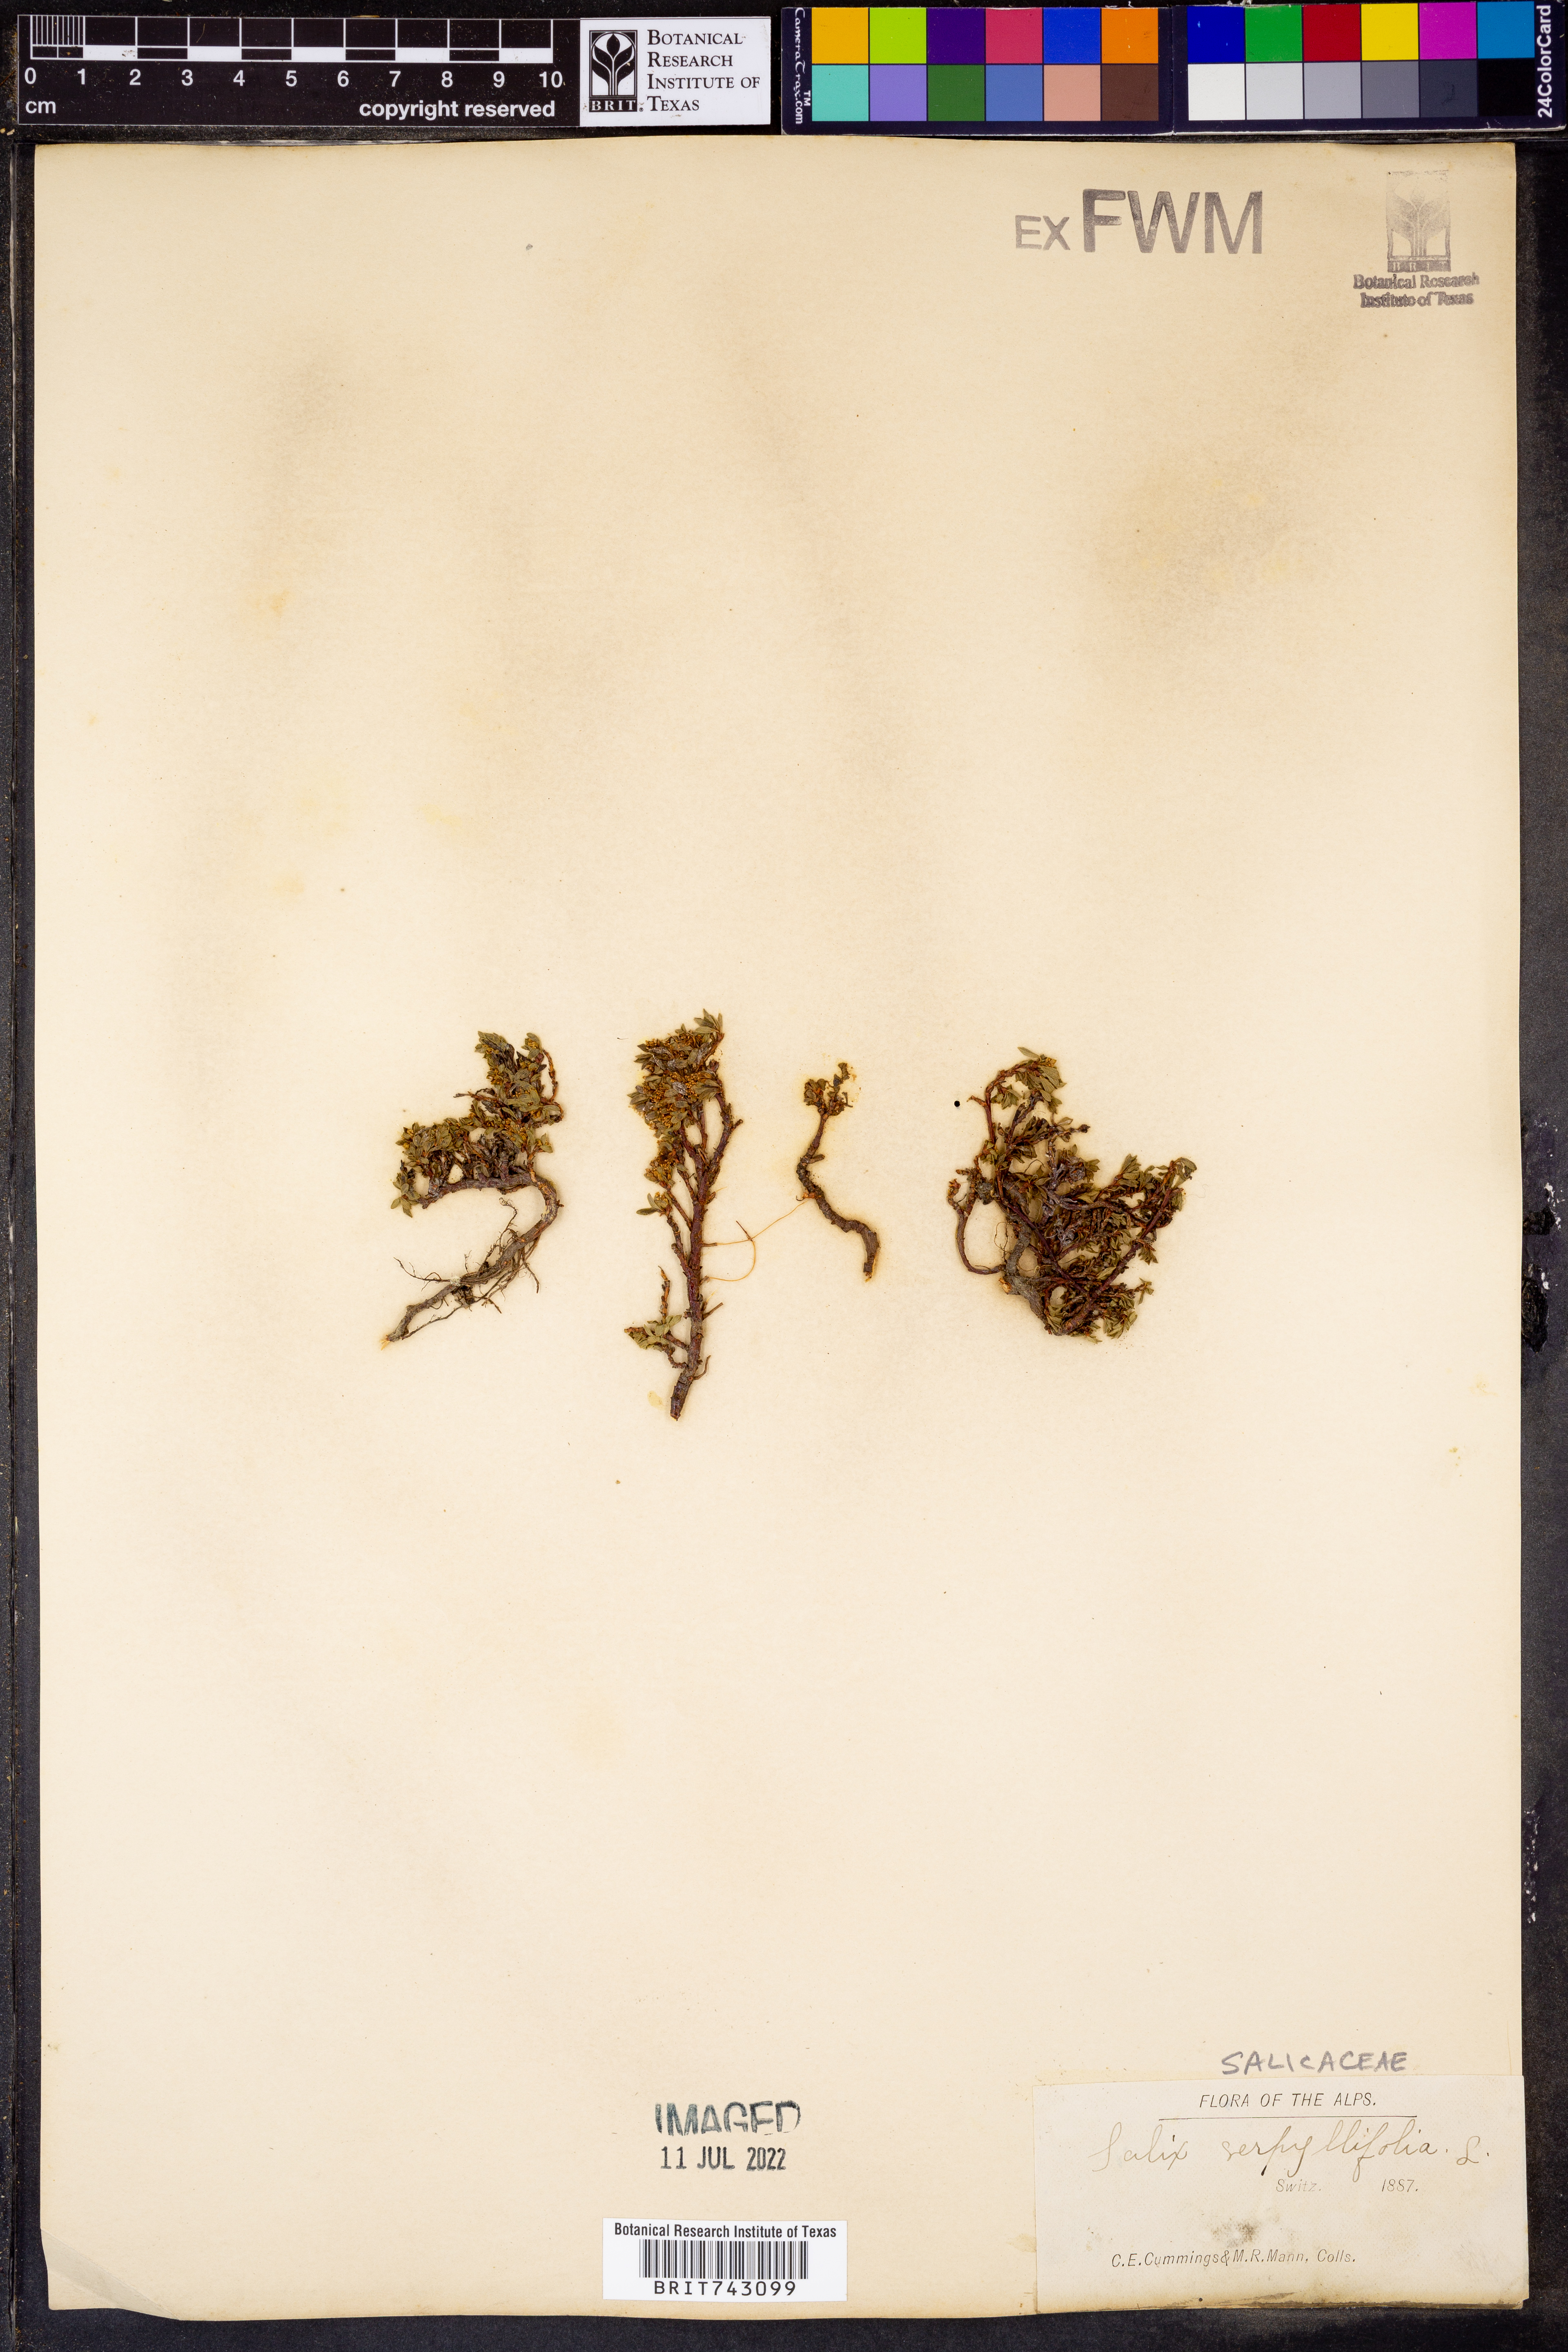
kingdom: Plantae
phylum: Tracheophyta
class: Magnoliopsida
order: Malpighiales
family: Salicaceae
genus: Salix
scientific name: Salix
